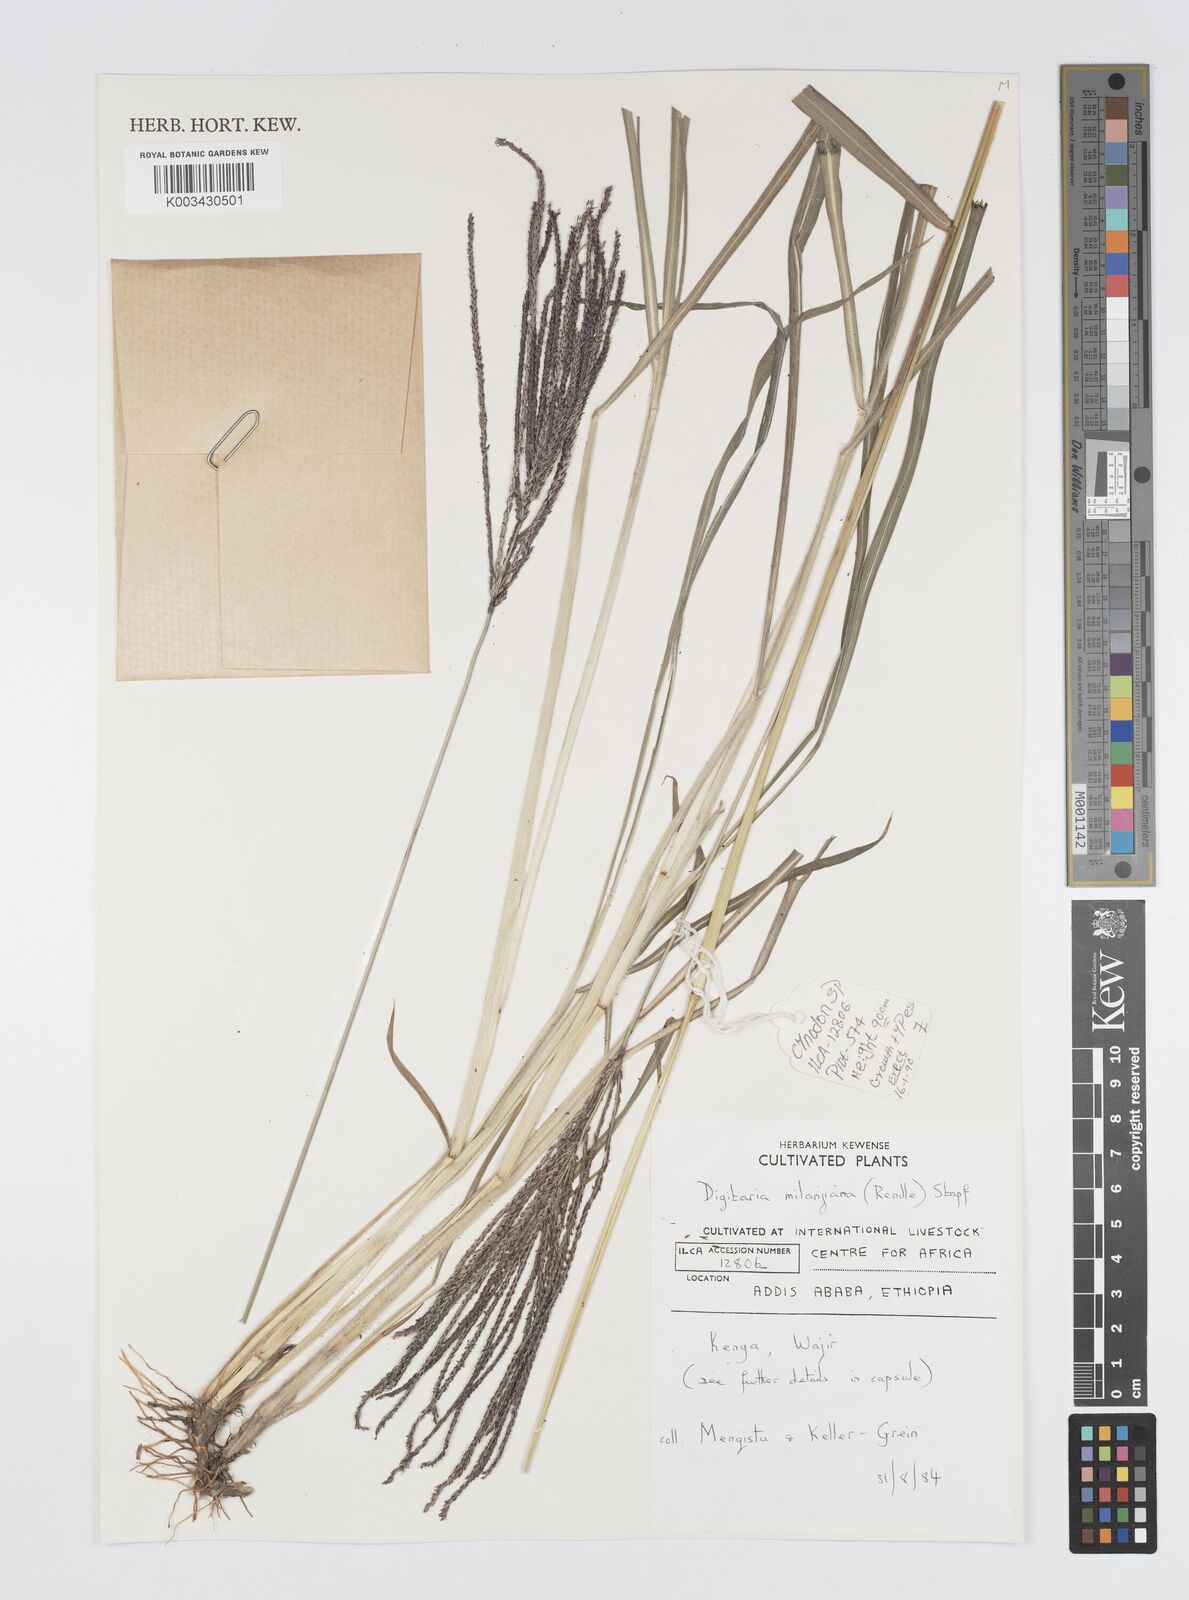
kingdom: Plantae
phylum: Tracheophyta
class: Liliopsida
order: Poales
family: Poaceae
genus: Digitaria
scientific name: Digitaria milanjiana
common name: Madagascar crabgrass
